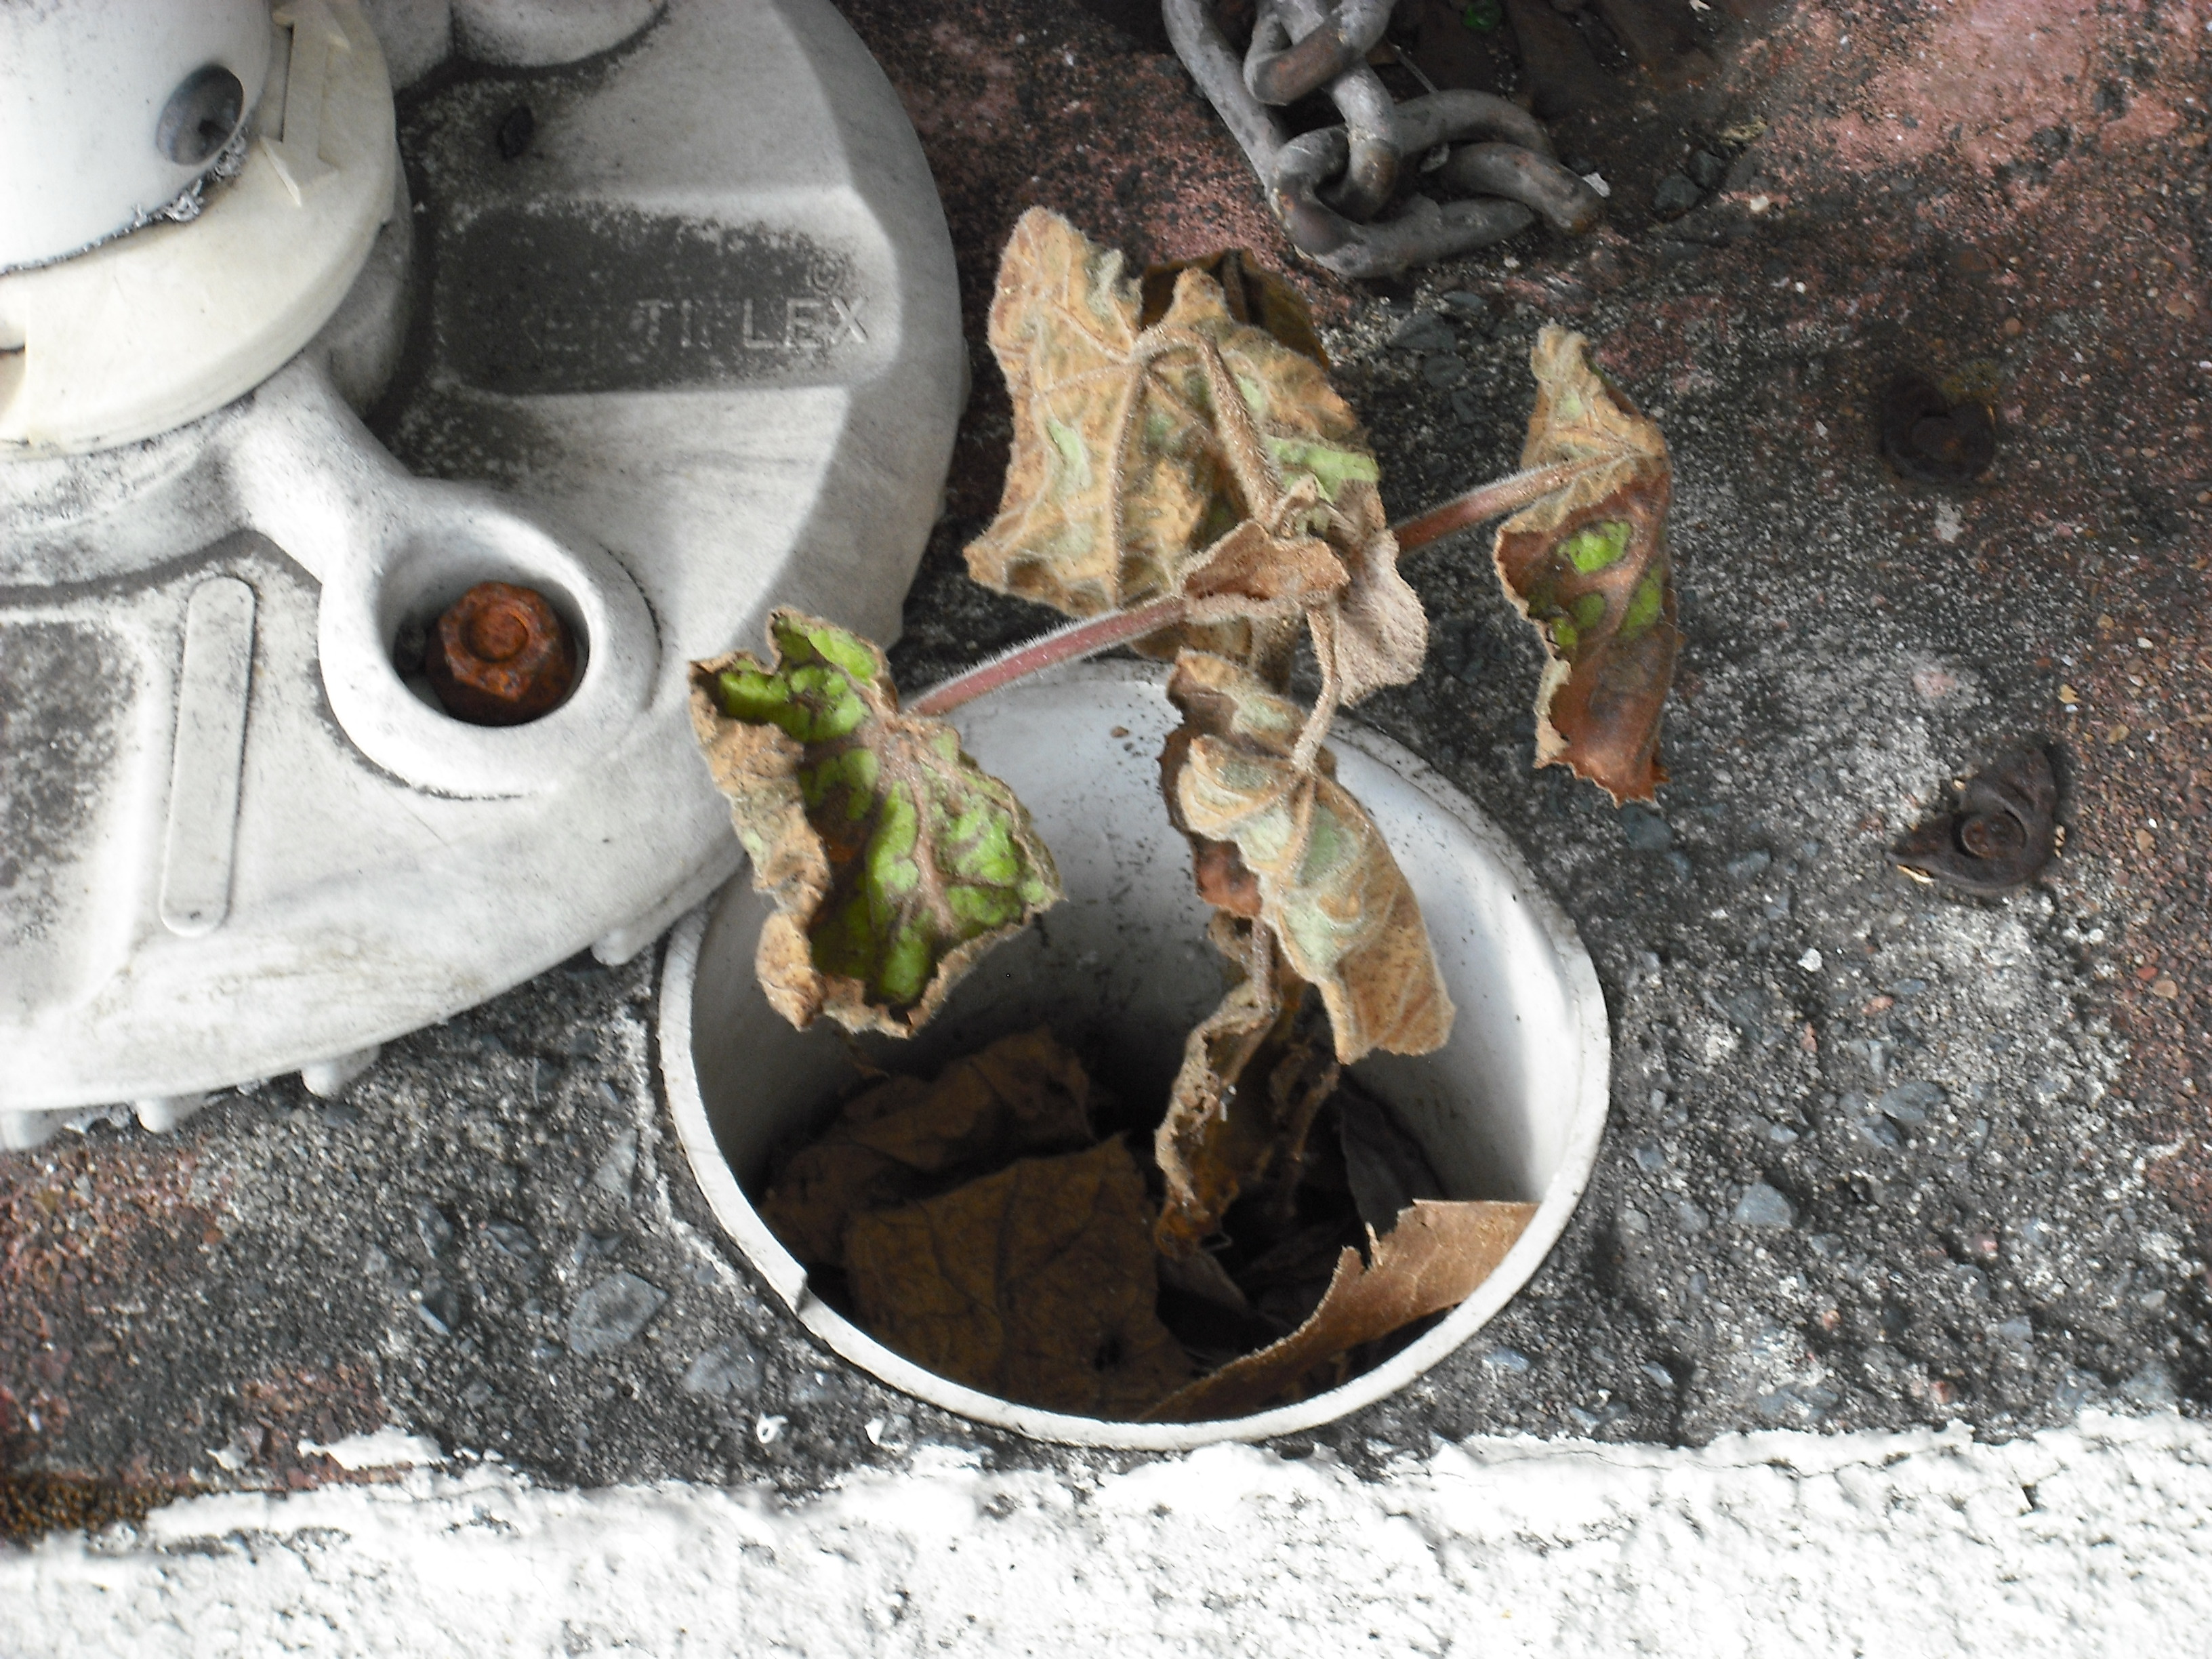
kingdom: Plantae
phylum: Tracheophyta
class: Magnoliopsida
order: Lamiales
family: Paulowniaceae
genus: Paulownia
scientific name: Paulownia elongata
